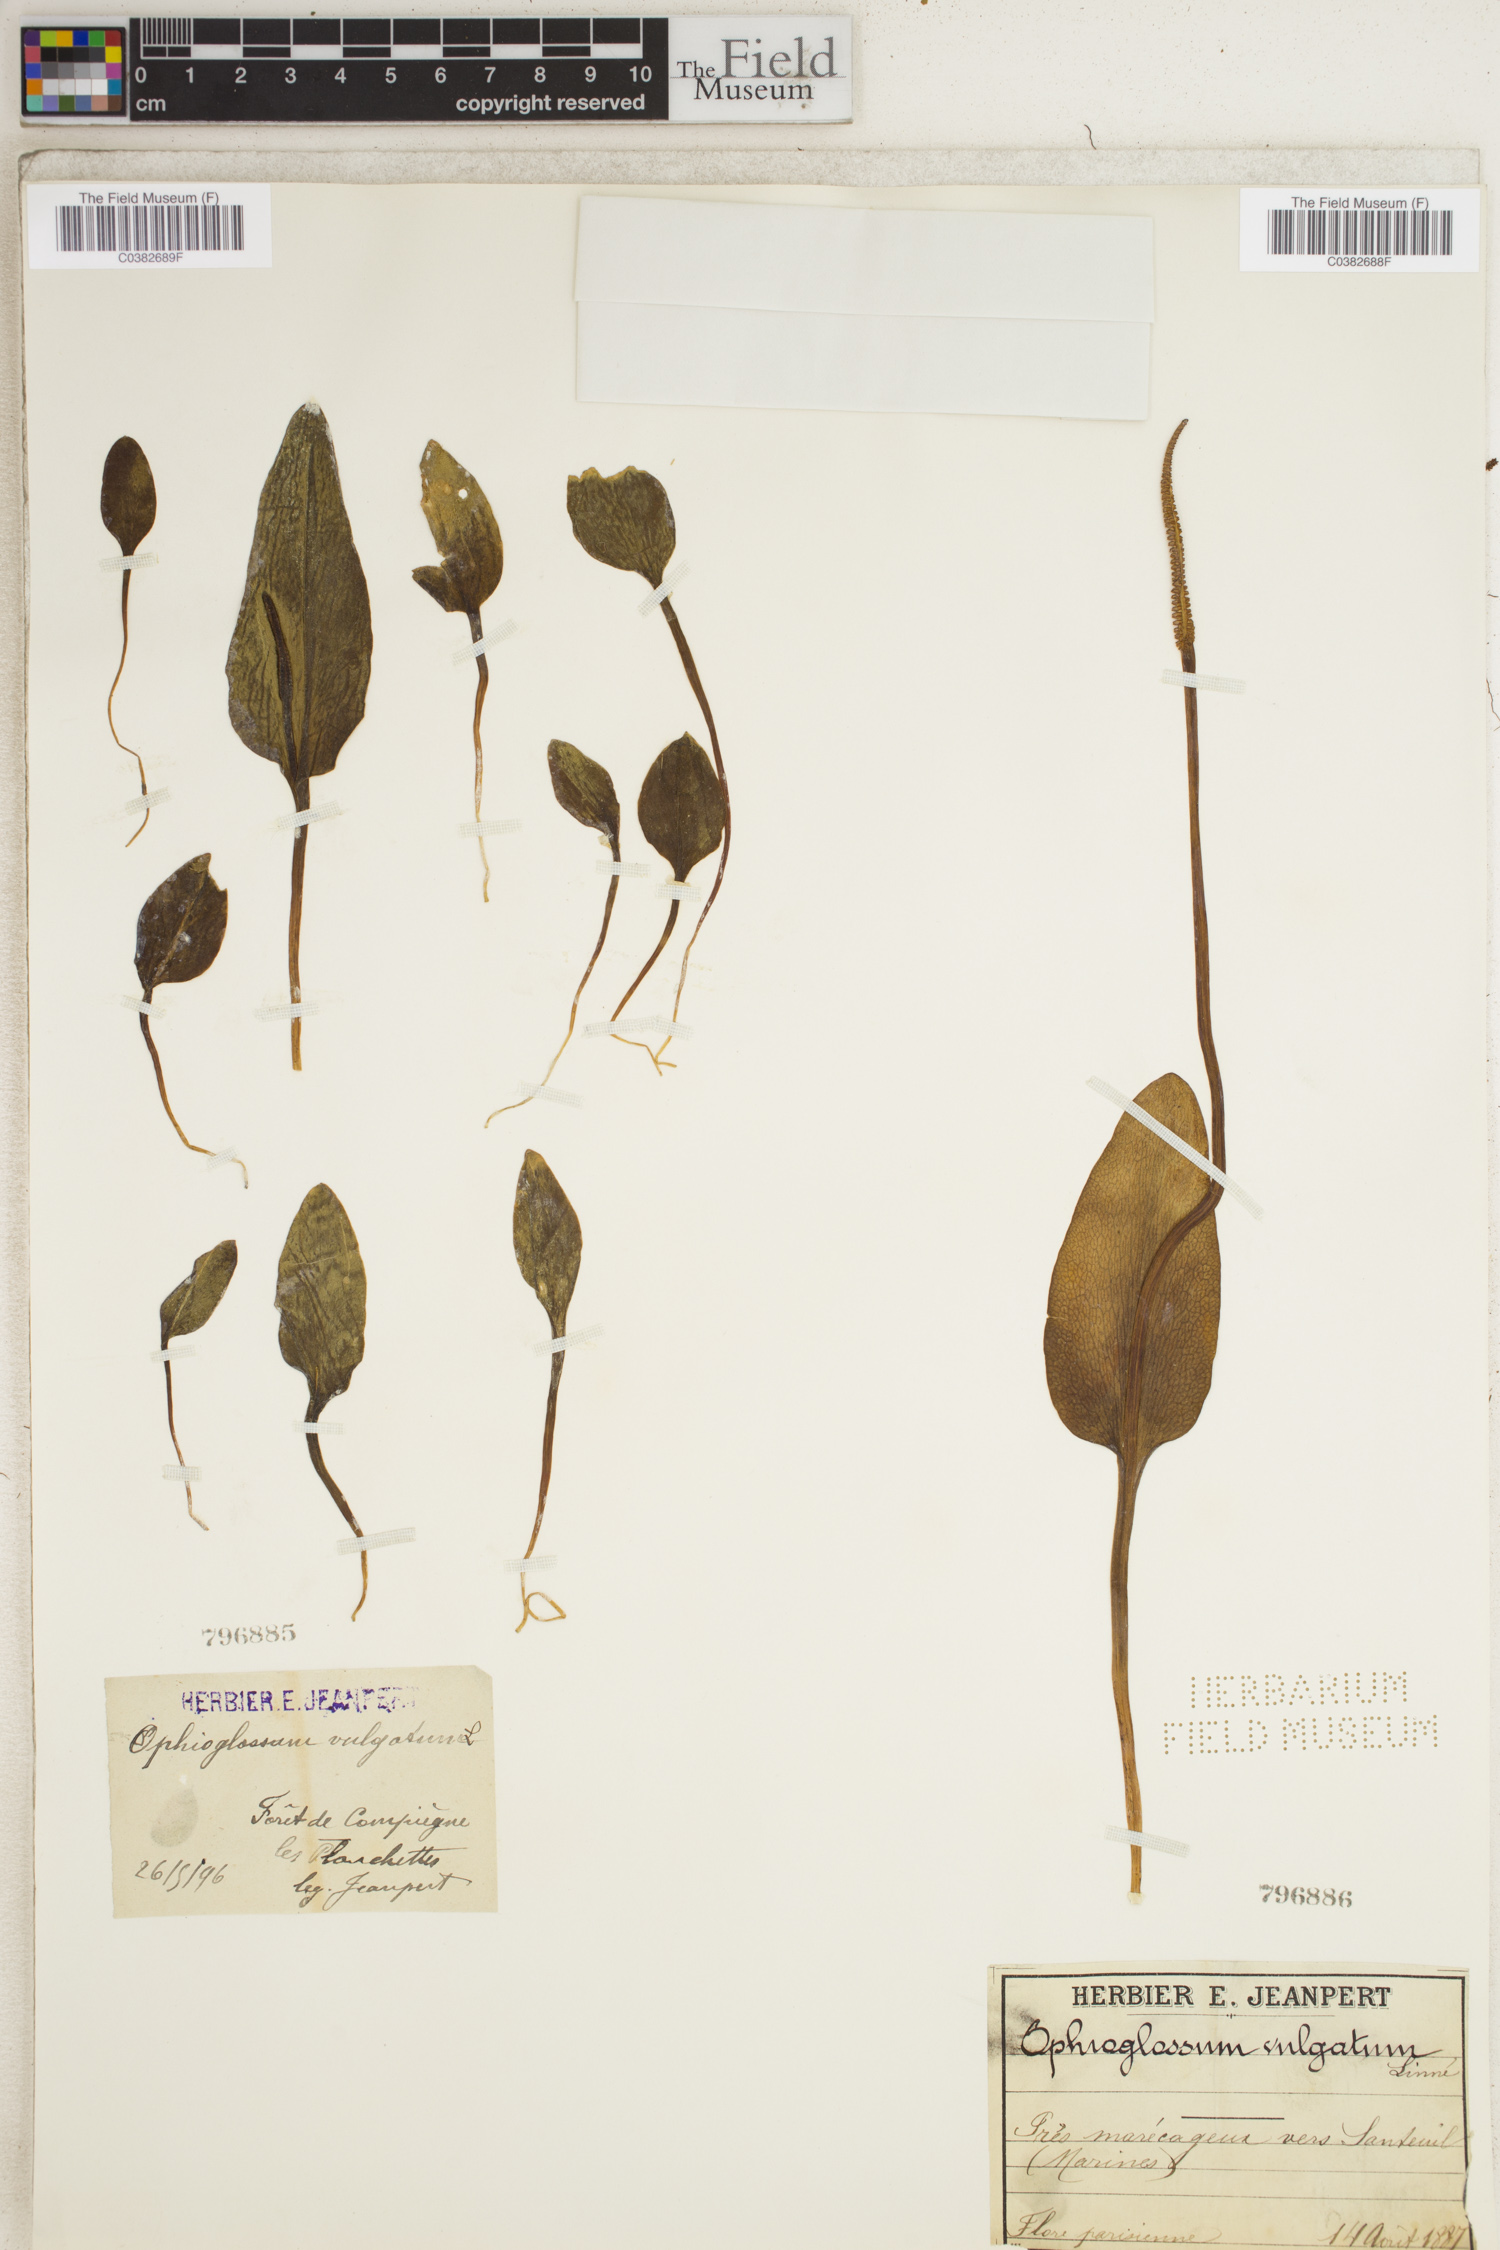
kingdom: Plantae
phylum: Tracheophyta
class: Polypodiopsida
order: Ophioglossales
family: Ophioglossaceae
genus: Ophioglossum
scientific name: Ophioglossum vulgatum
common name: Adder's-tongue
